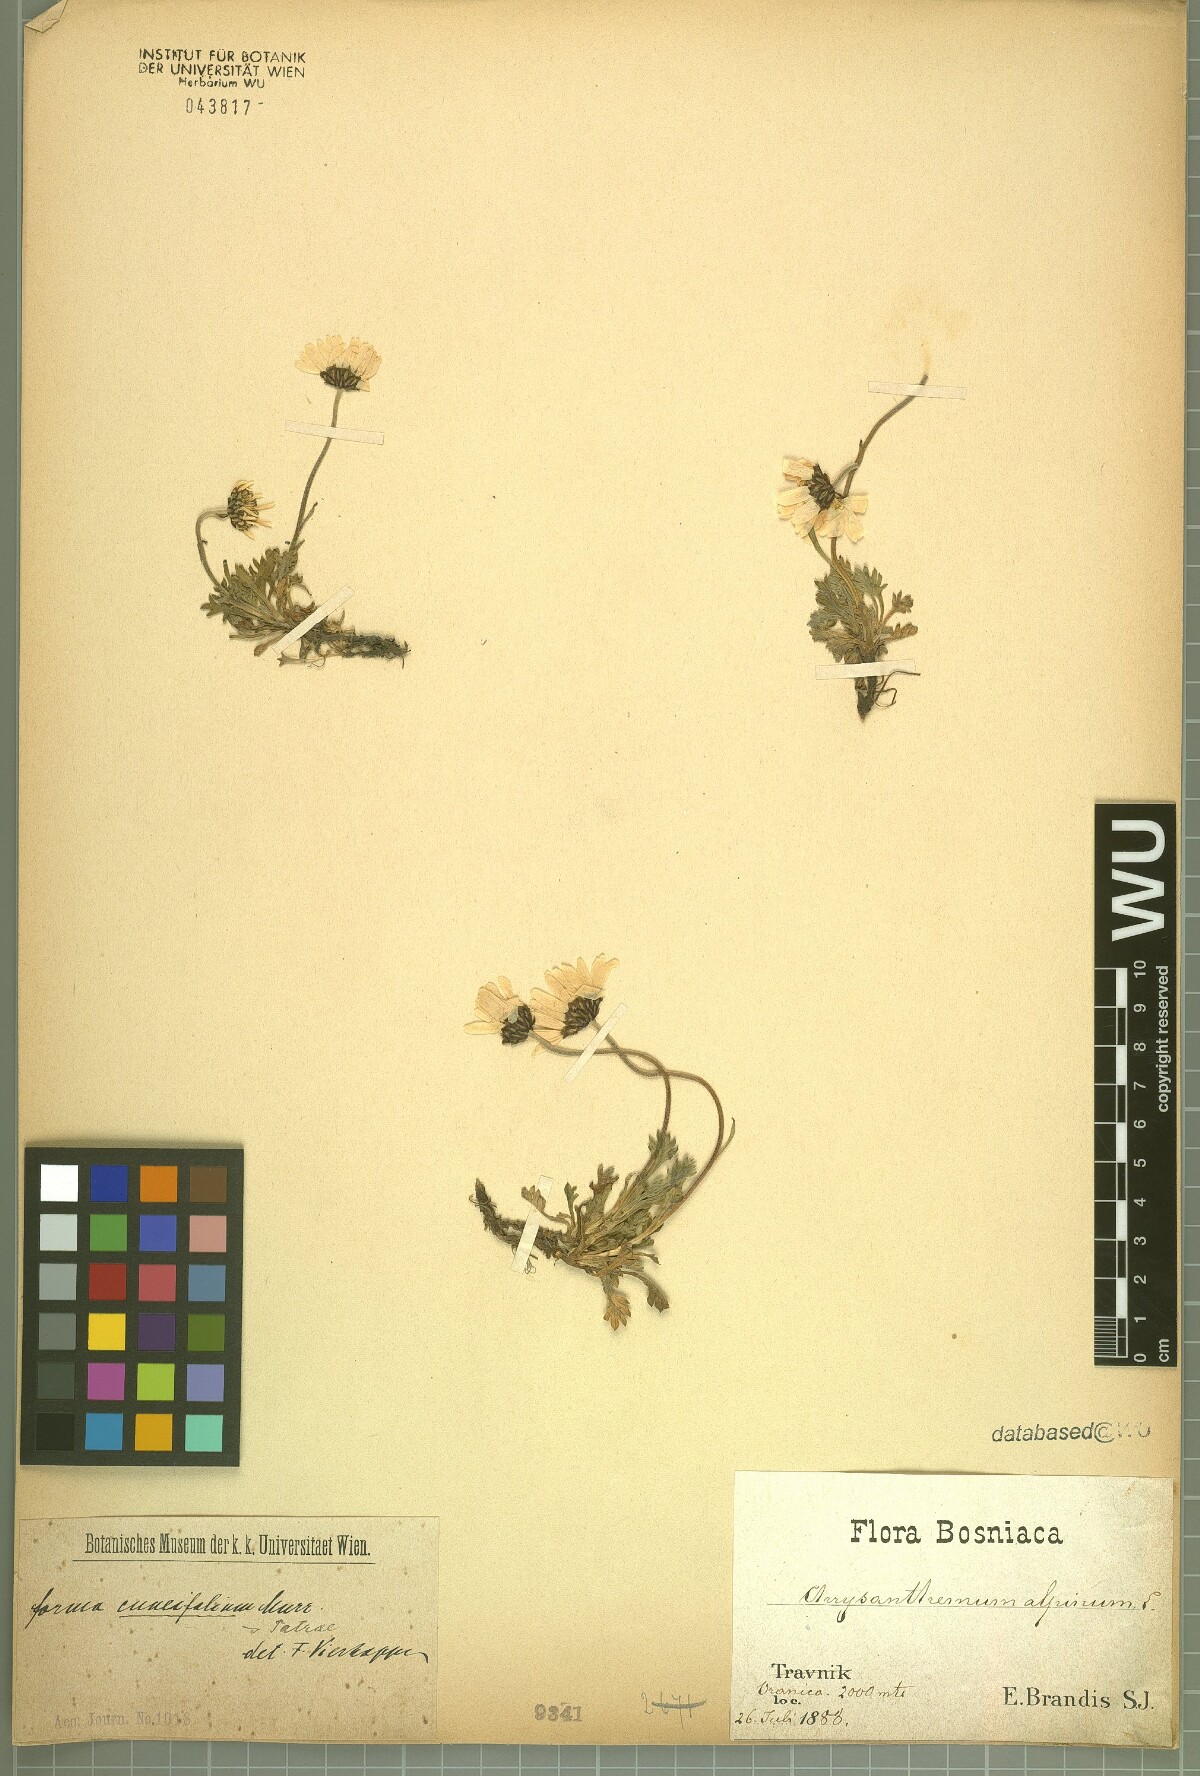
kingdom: Plantae
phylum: Tracheophyta
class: Magnoliopsida
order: Asterales
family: Asteraceae
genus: Leucanthemopsis
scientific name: Leucanthemopsis alpina
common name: Alpine moon daisy
